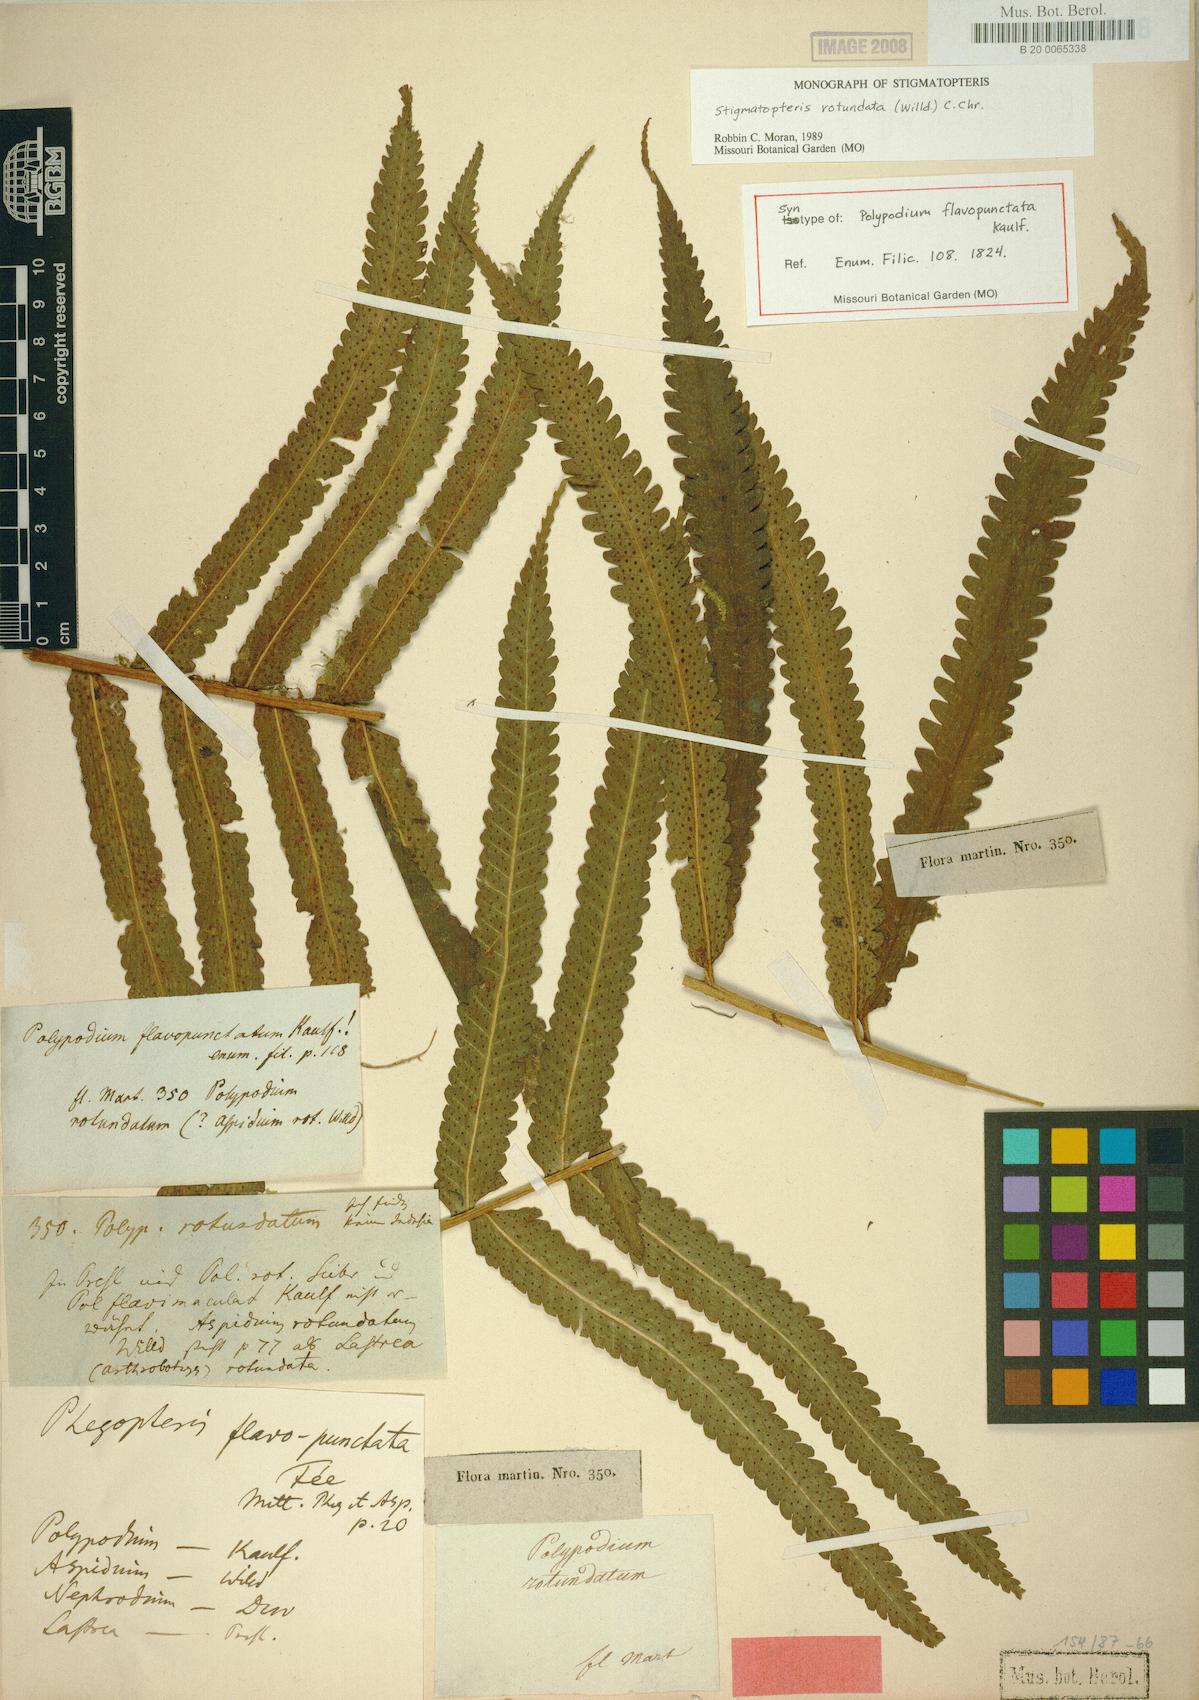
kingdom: Plantae
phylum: Tracheophyta
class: Polypodiopsida
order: Polypodiales
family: Dryopteridaceae
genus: Stigmatopteris
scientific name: Stigmatopteris rotundata
